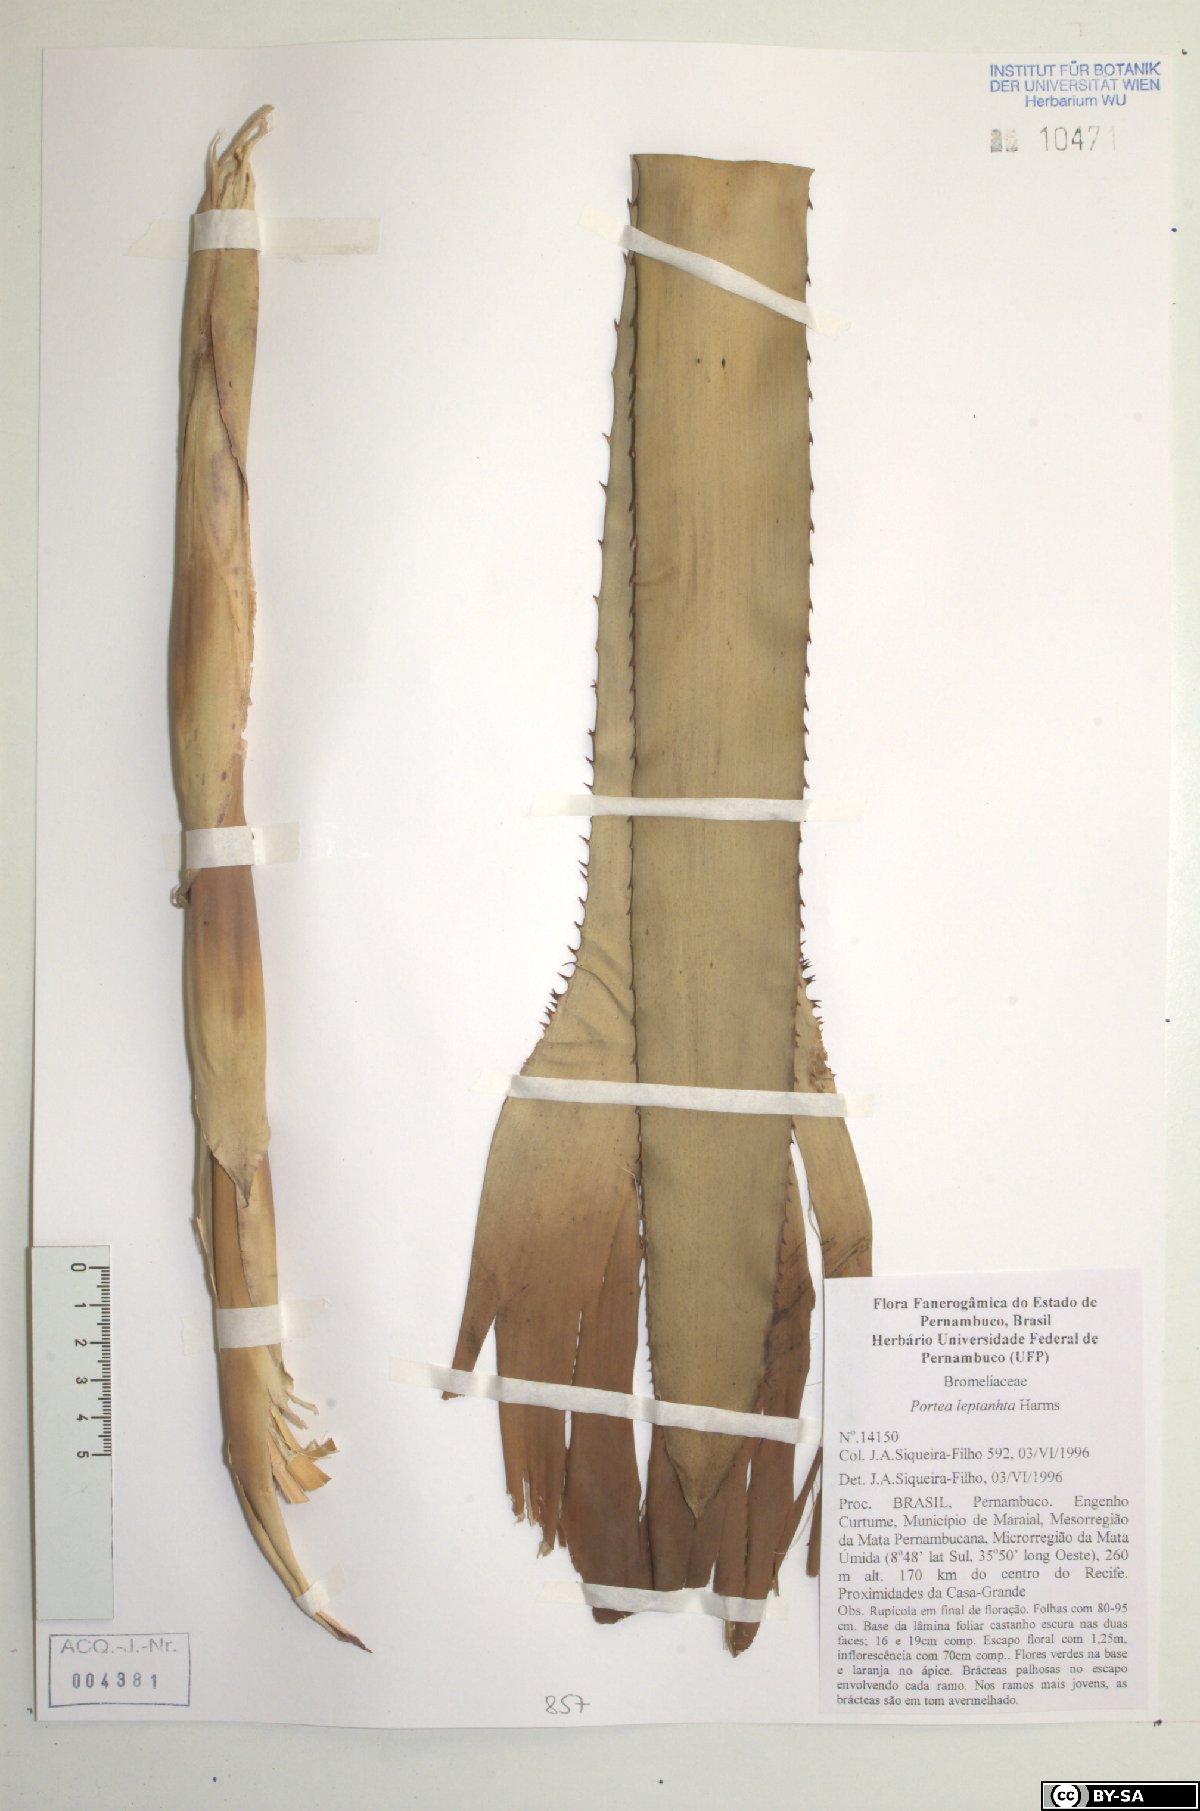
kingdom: Plantae
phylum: Tracheophyta
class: Liliopsida
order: Poales
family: Bromeliaceae
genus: Aechmea
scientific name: Aechmea leptantha
